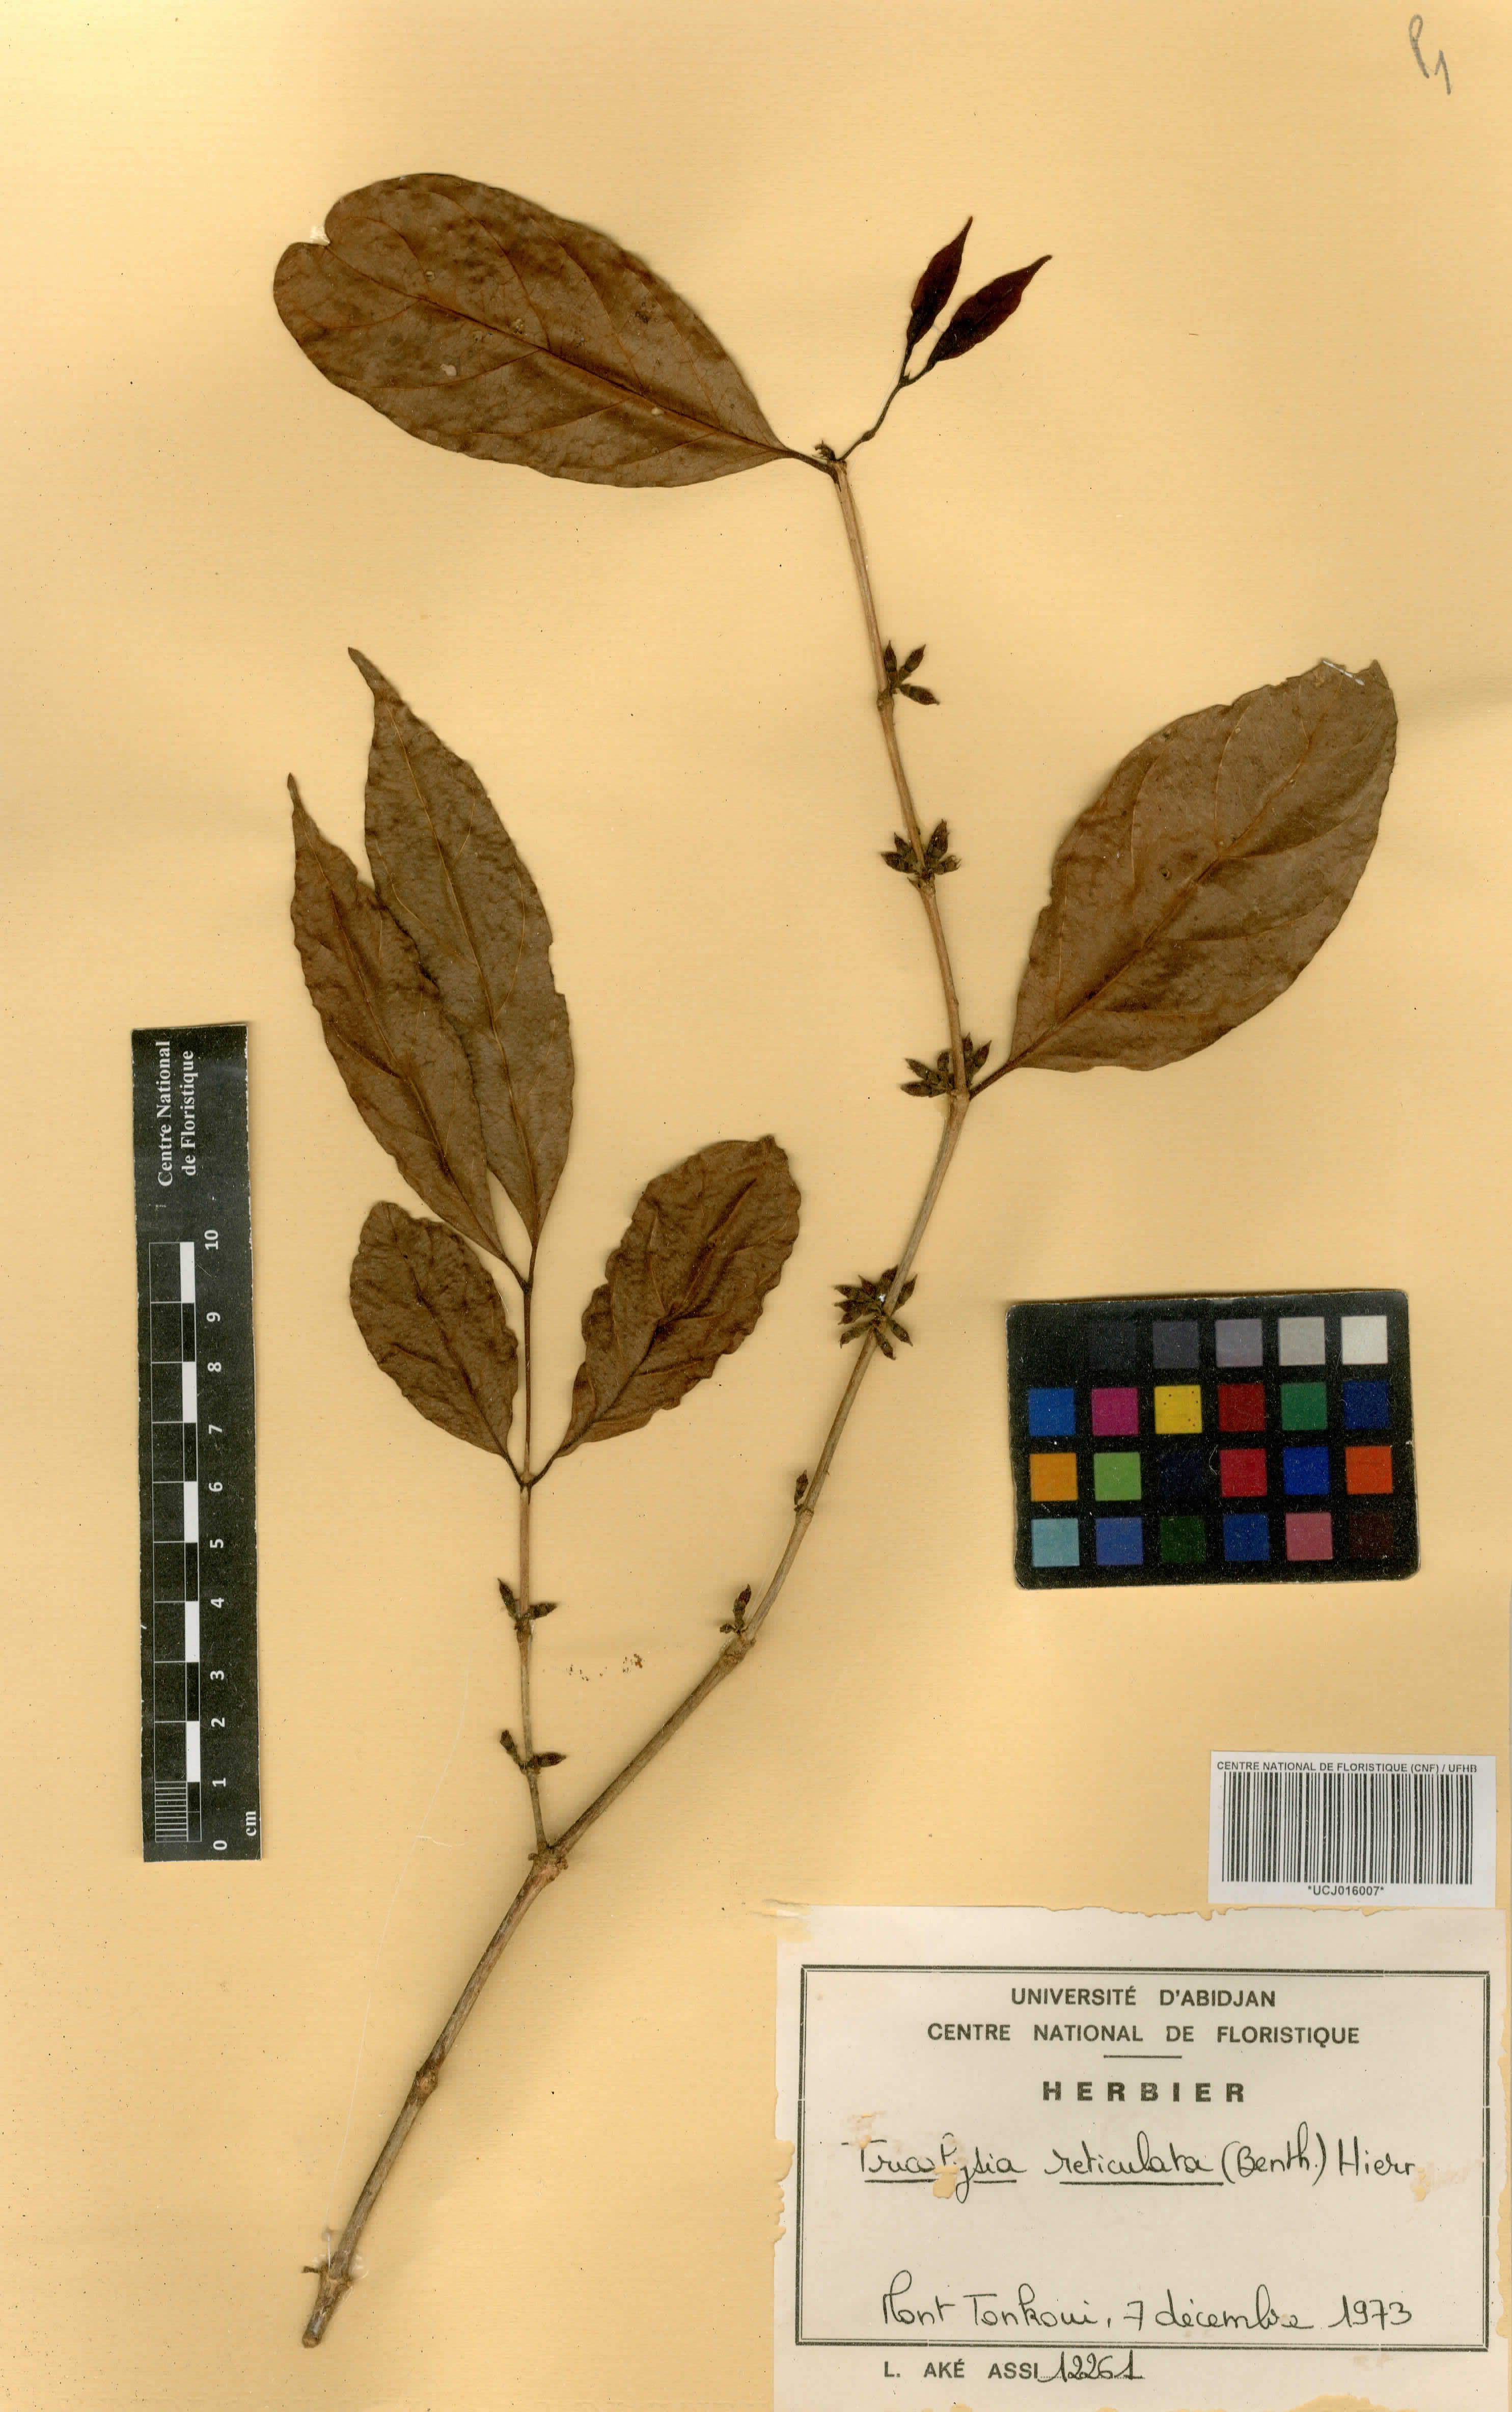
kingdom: Plantae
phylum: Tracheophyta
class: Magnoliopsida
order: Gentianales
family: Rubiaceae
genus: Tricalysia
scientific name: Tricalysia reticulata
